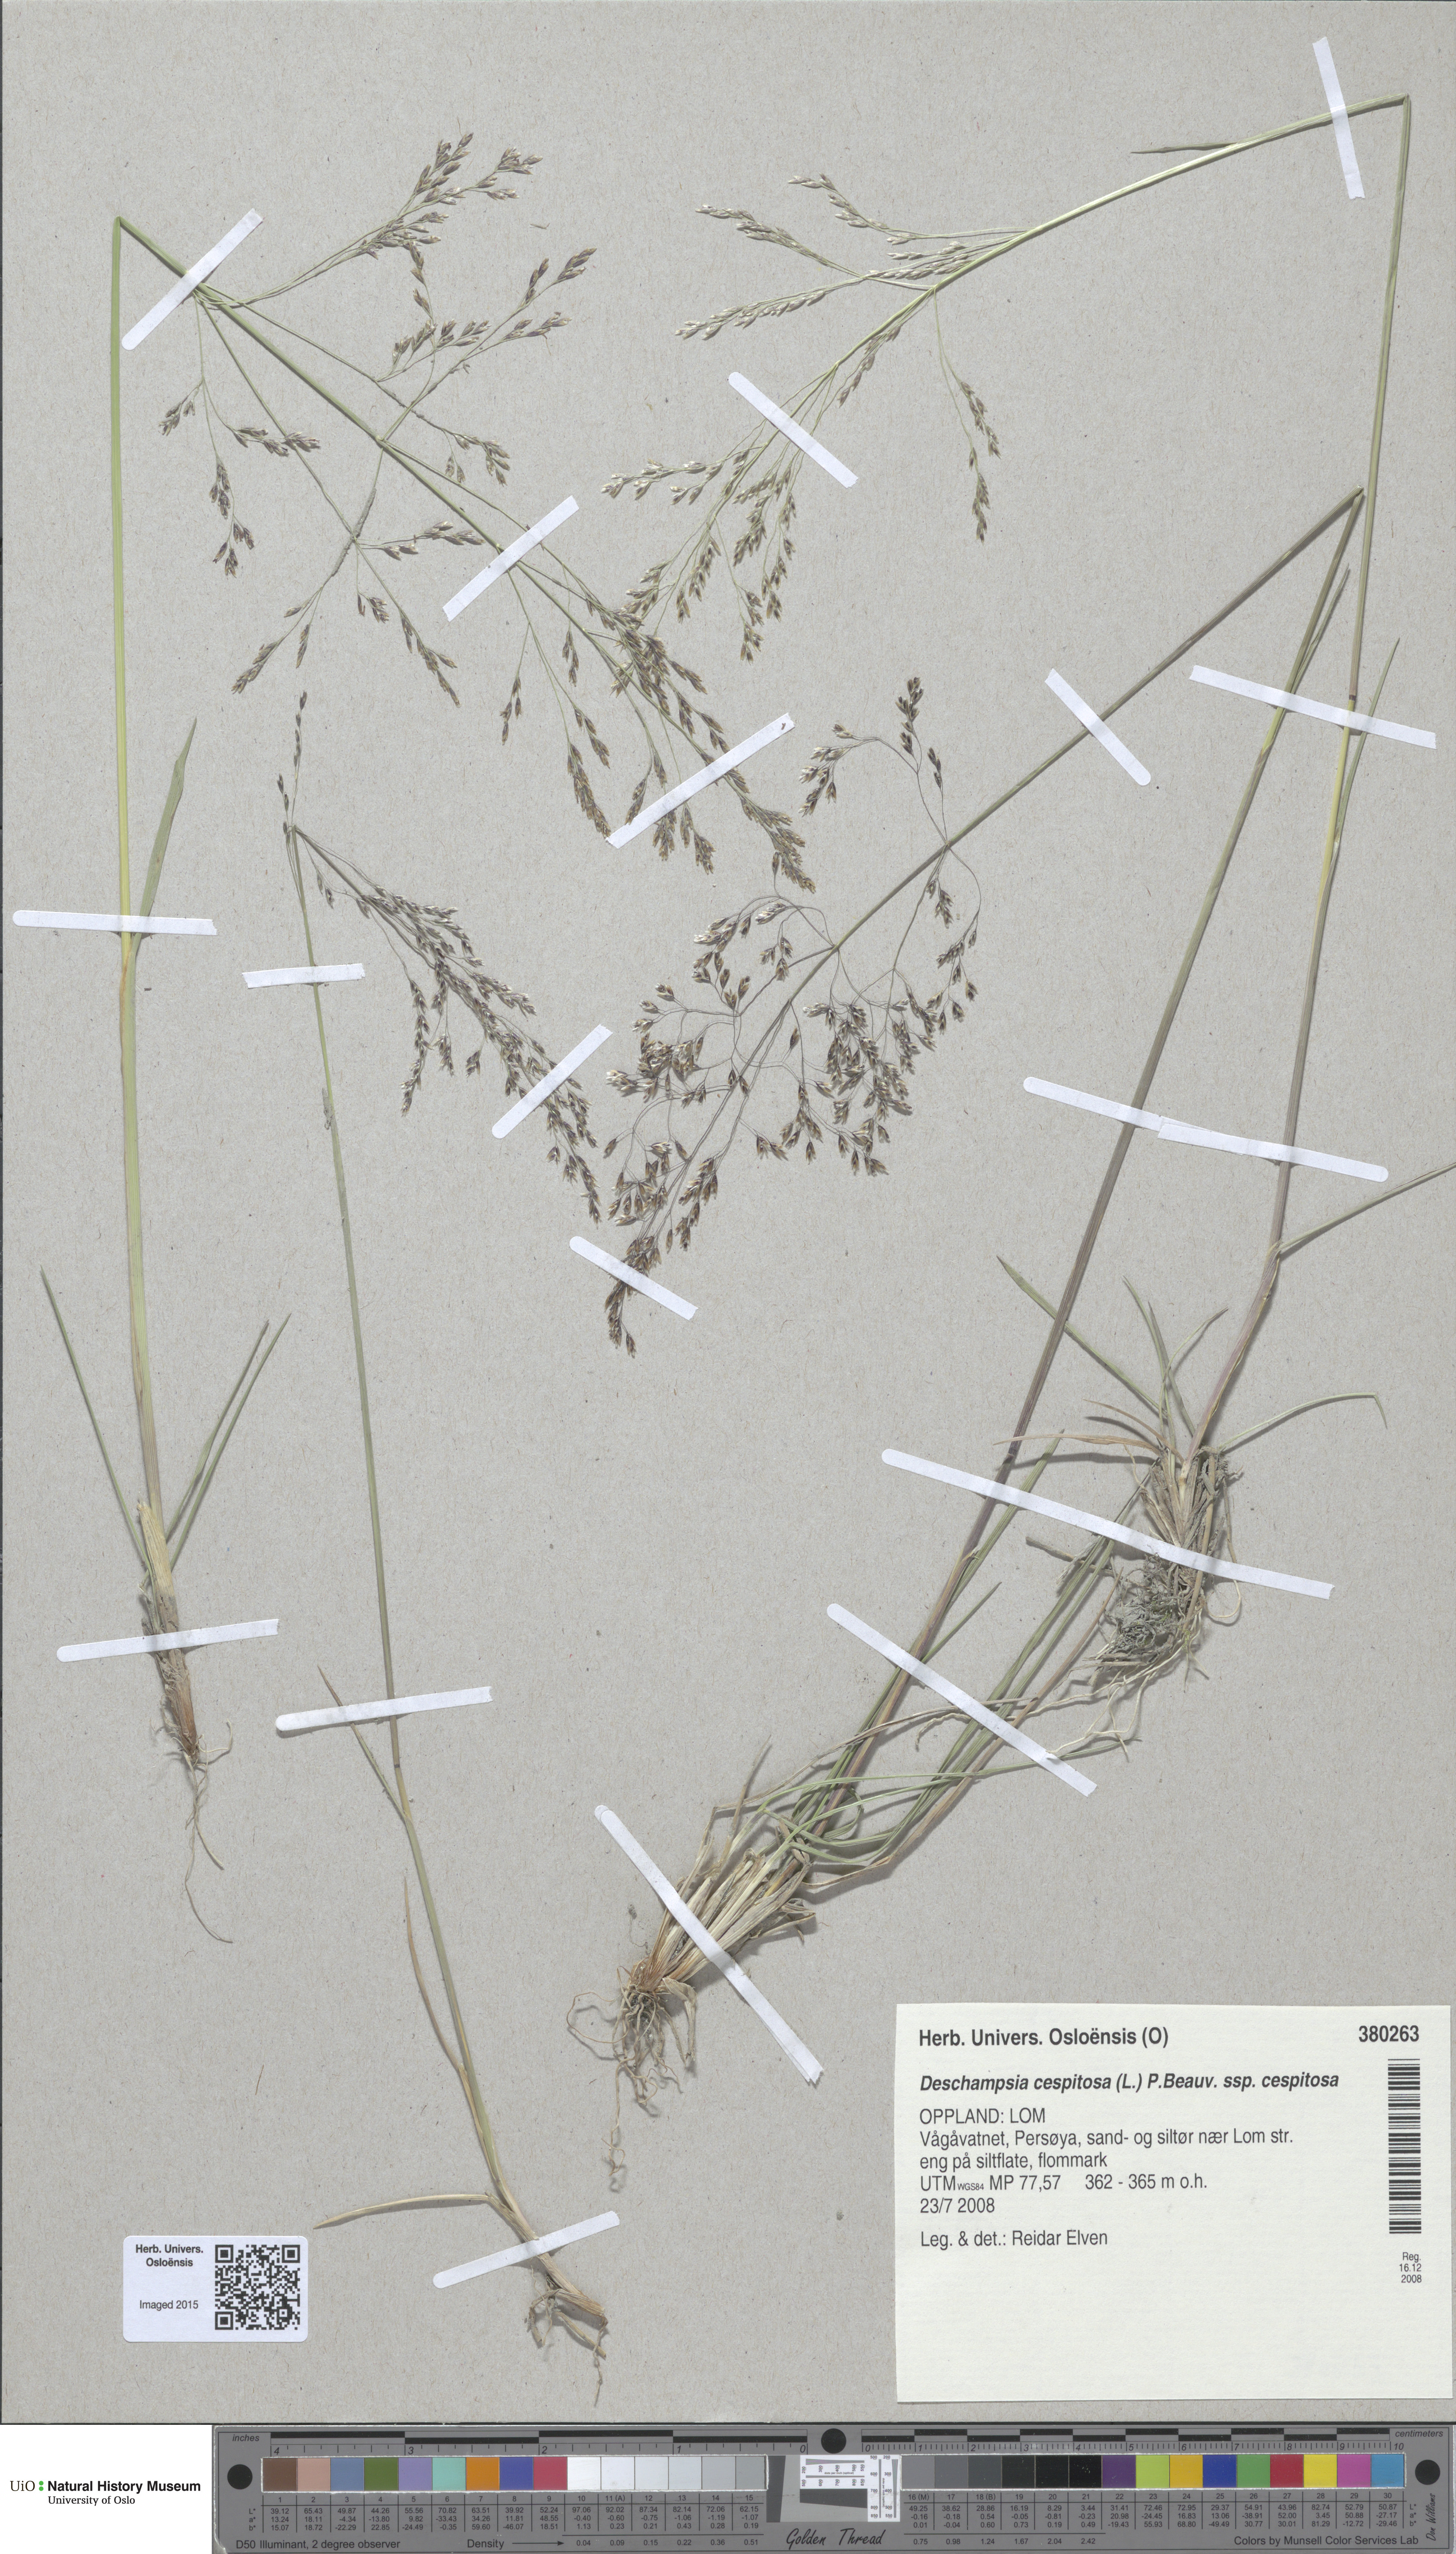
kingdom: Plantae
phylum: Tracheophyta
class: Liliopsida
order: Poales
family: Poaceae
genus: Deschampsia
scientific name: Deschampsia cespitosa
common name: Tufted hair-grass
